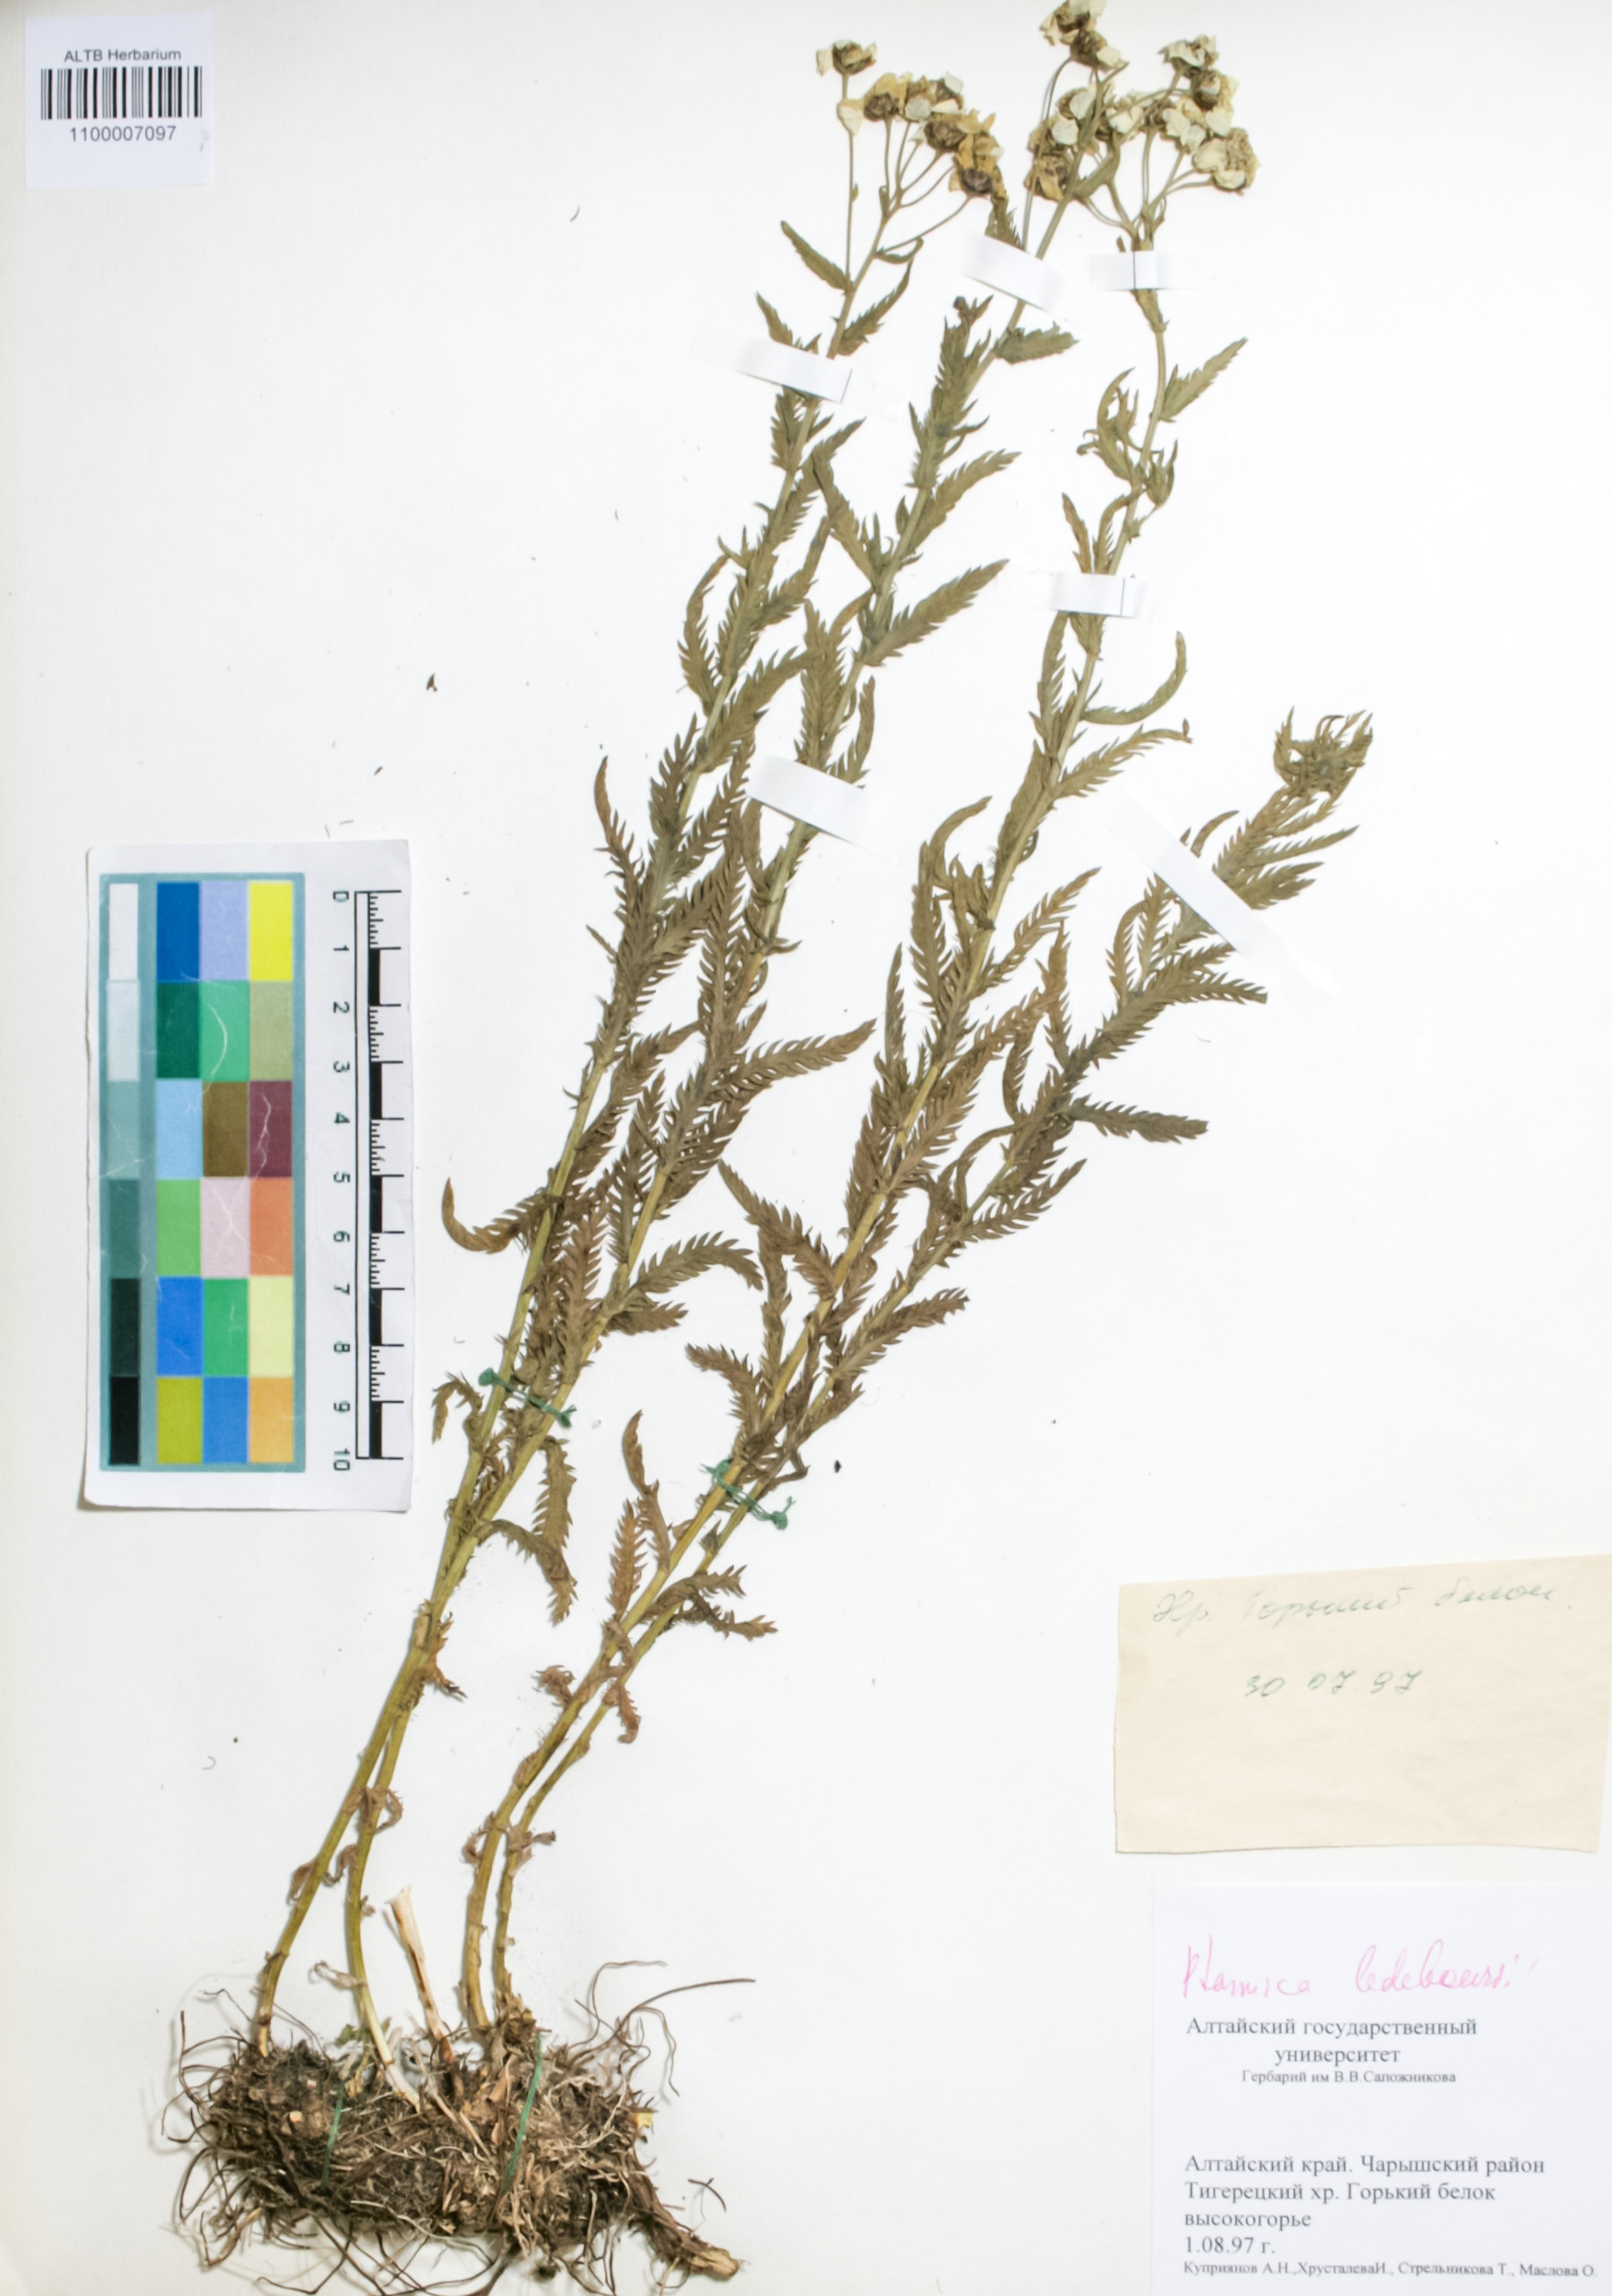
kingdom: Plantae
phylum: Tracheophyta
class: Magnoliopsida
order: Asterales
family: Asteraceae
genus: Achillea
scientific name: Achillea ledebourii
